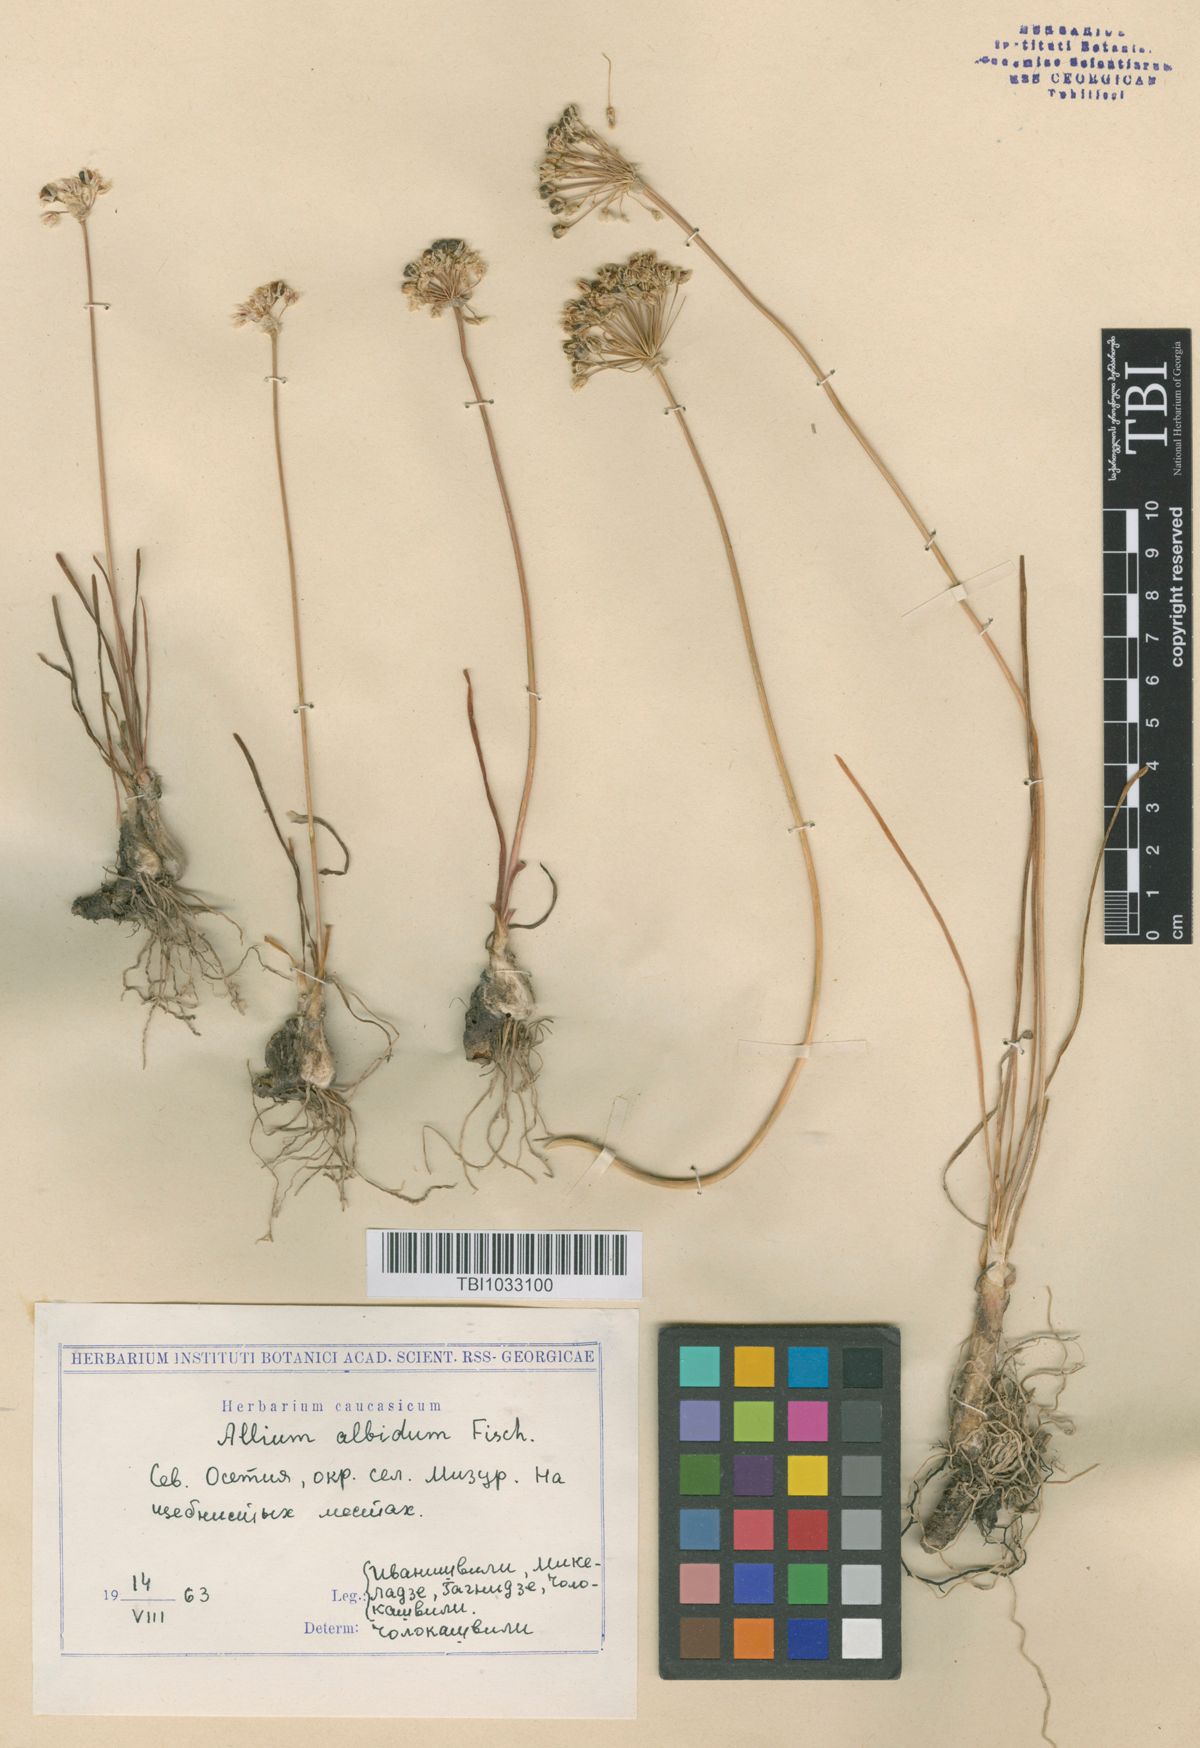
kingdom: Plantae
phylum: Tracheophyta
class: Liliopsida
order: Asparagales
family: Amaryllidaceae
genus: Allium
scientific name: Allium denudatum
